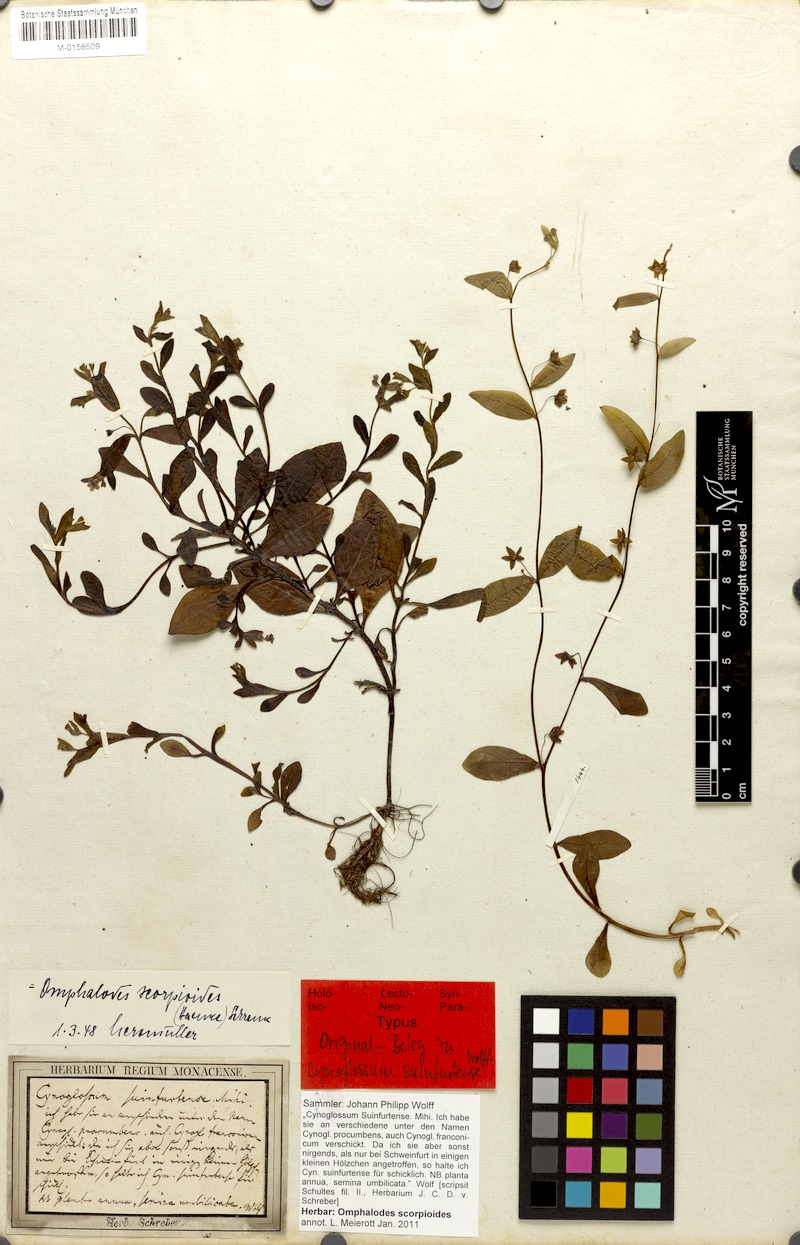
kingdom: Plantae
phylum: Tracheophyta
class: Magnoliopsida
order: Boraginales
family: Boraginaceae
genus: Memoremea
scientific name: Memoremea scorpioides
